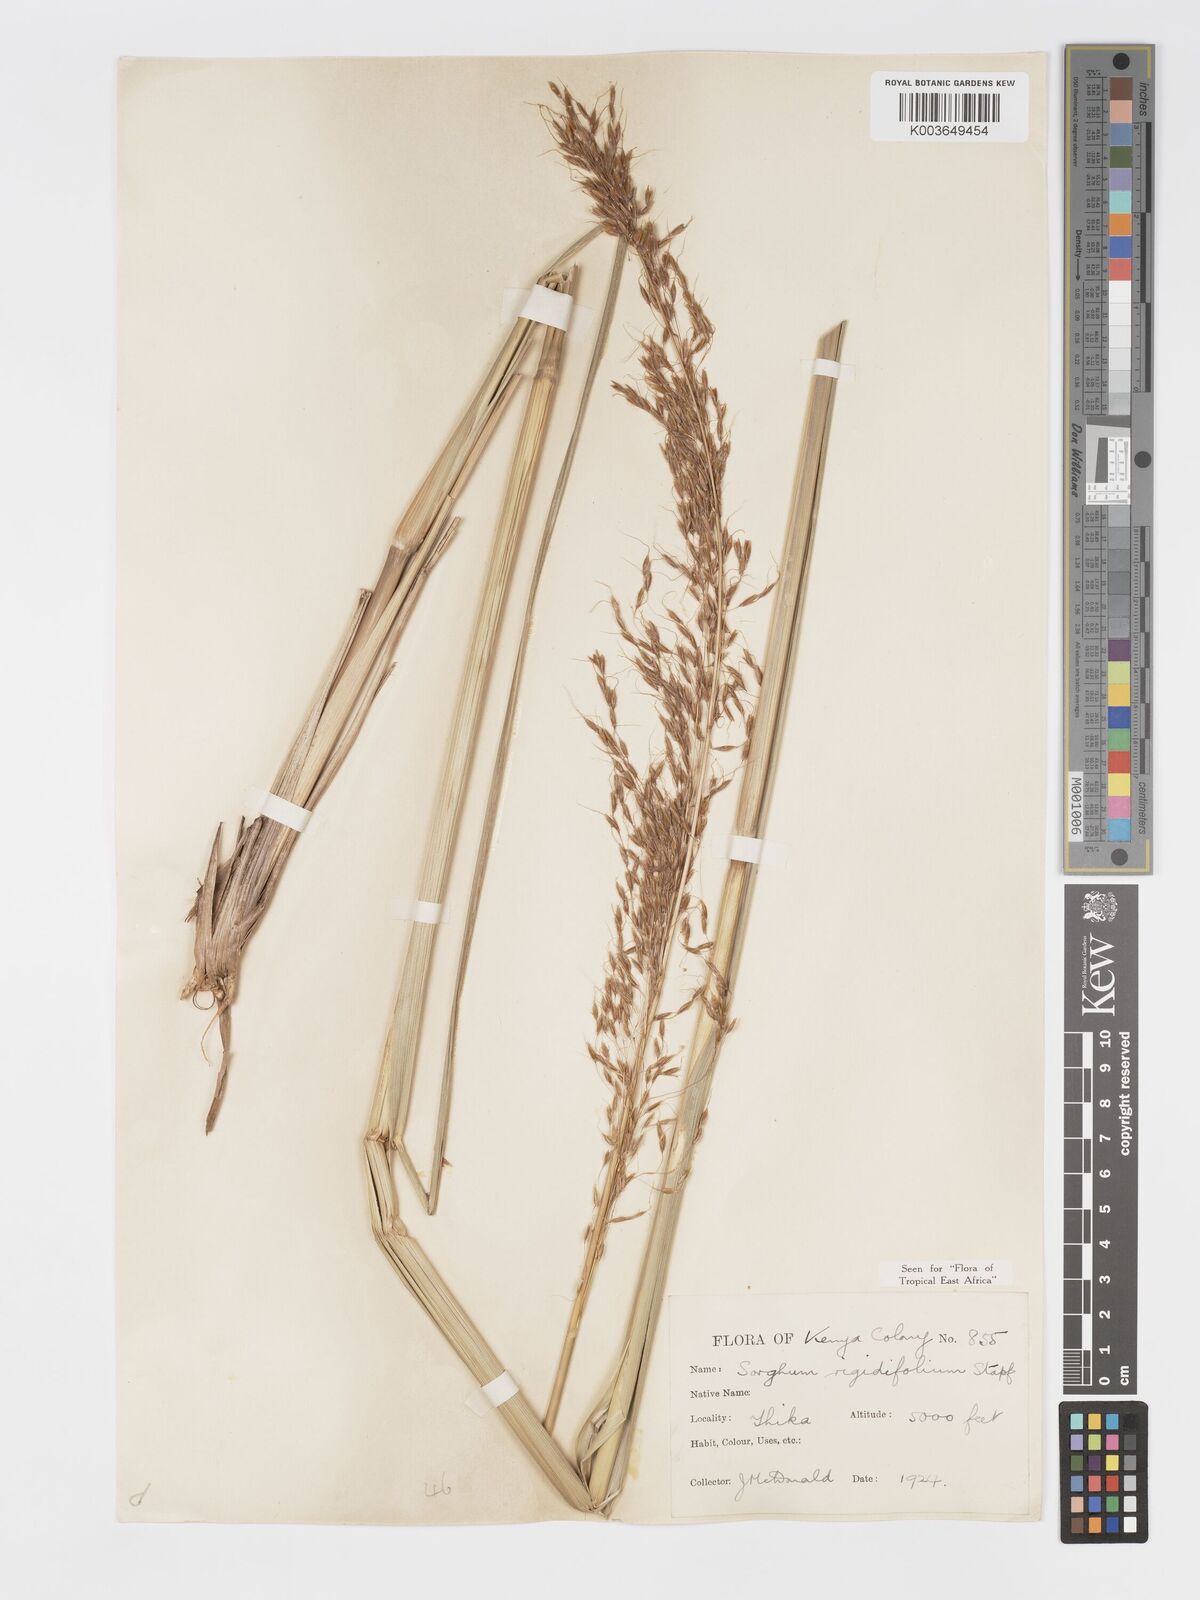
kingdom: Plantae
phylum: Tracheophyta
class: Liliopsida
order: Poales
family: Poaceae
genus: Sorghastrum
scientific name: Sorghastrum stipoides
